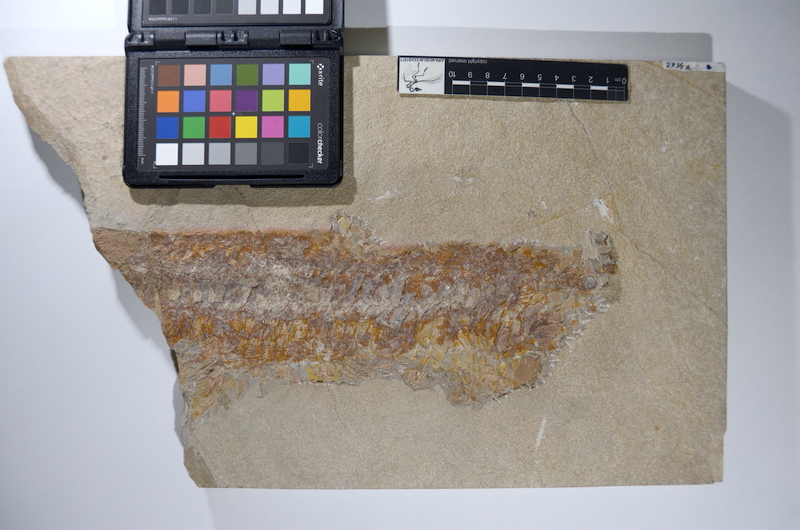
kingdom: Animalia
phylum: Chordata
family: Aspidorhynchidae
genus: Aspidorhynchus
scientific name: Aspidorhynchus acutirostris
